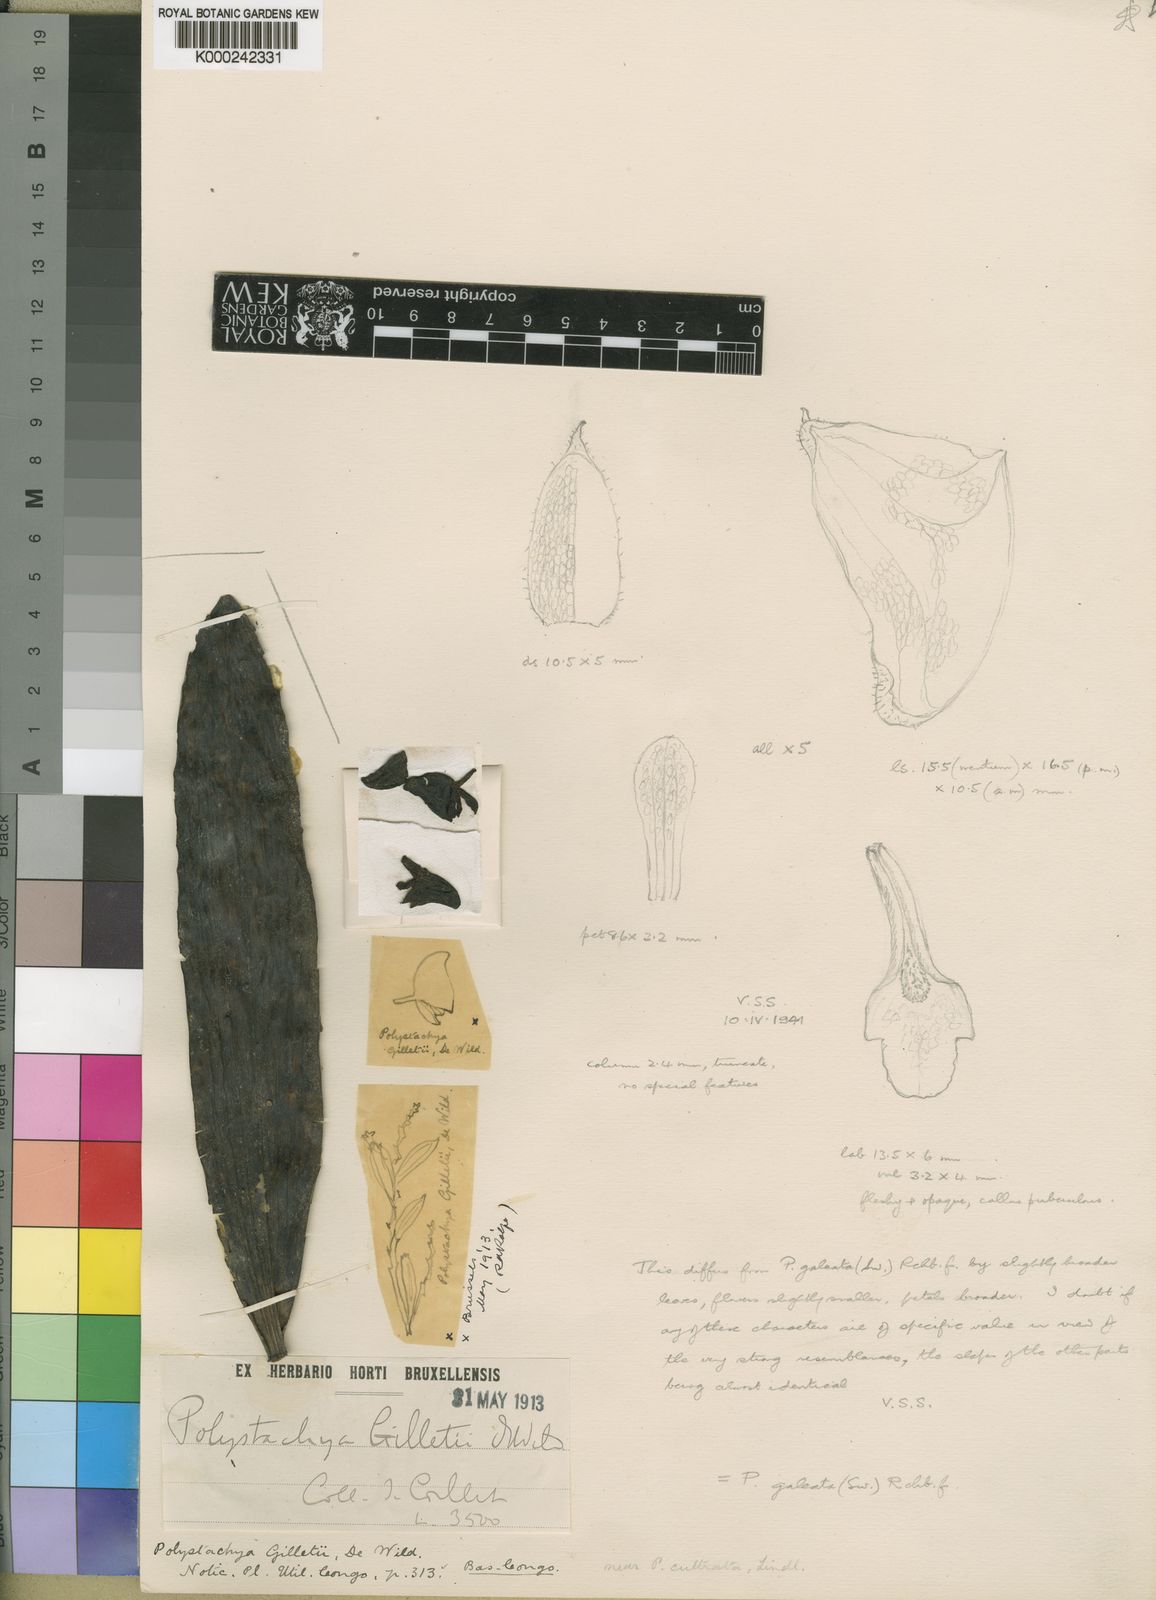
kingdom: Plantae
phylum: Tracheophyta
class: Liliopsida
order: Asparagales
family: Orchidaceae
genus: Polystachya
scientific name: Polystachya galeata
